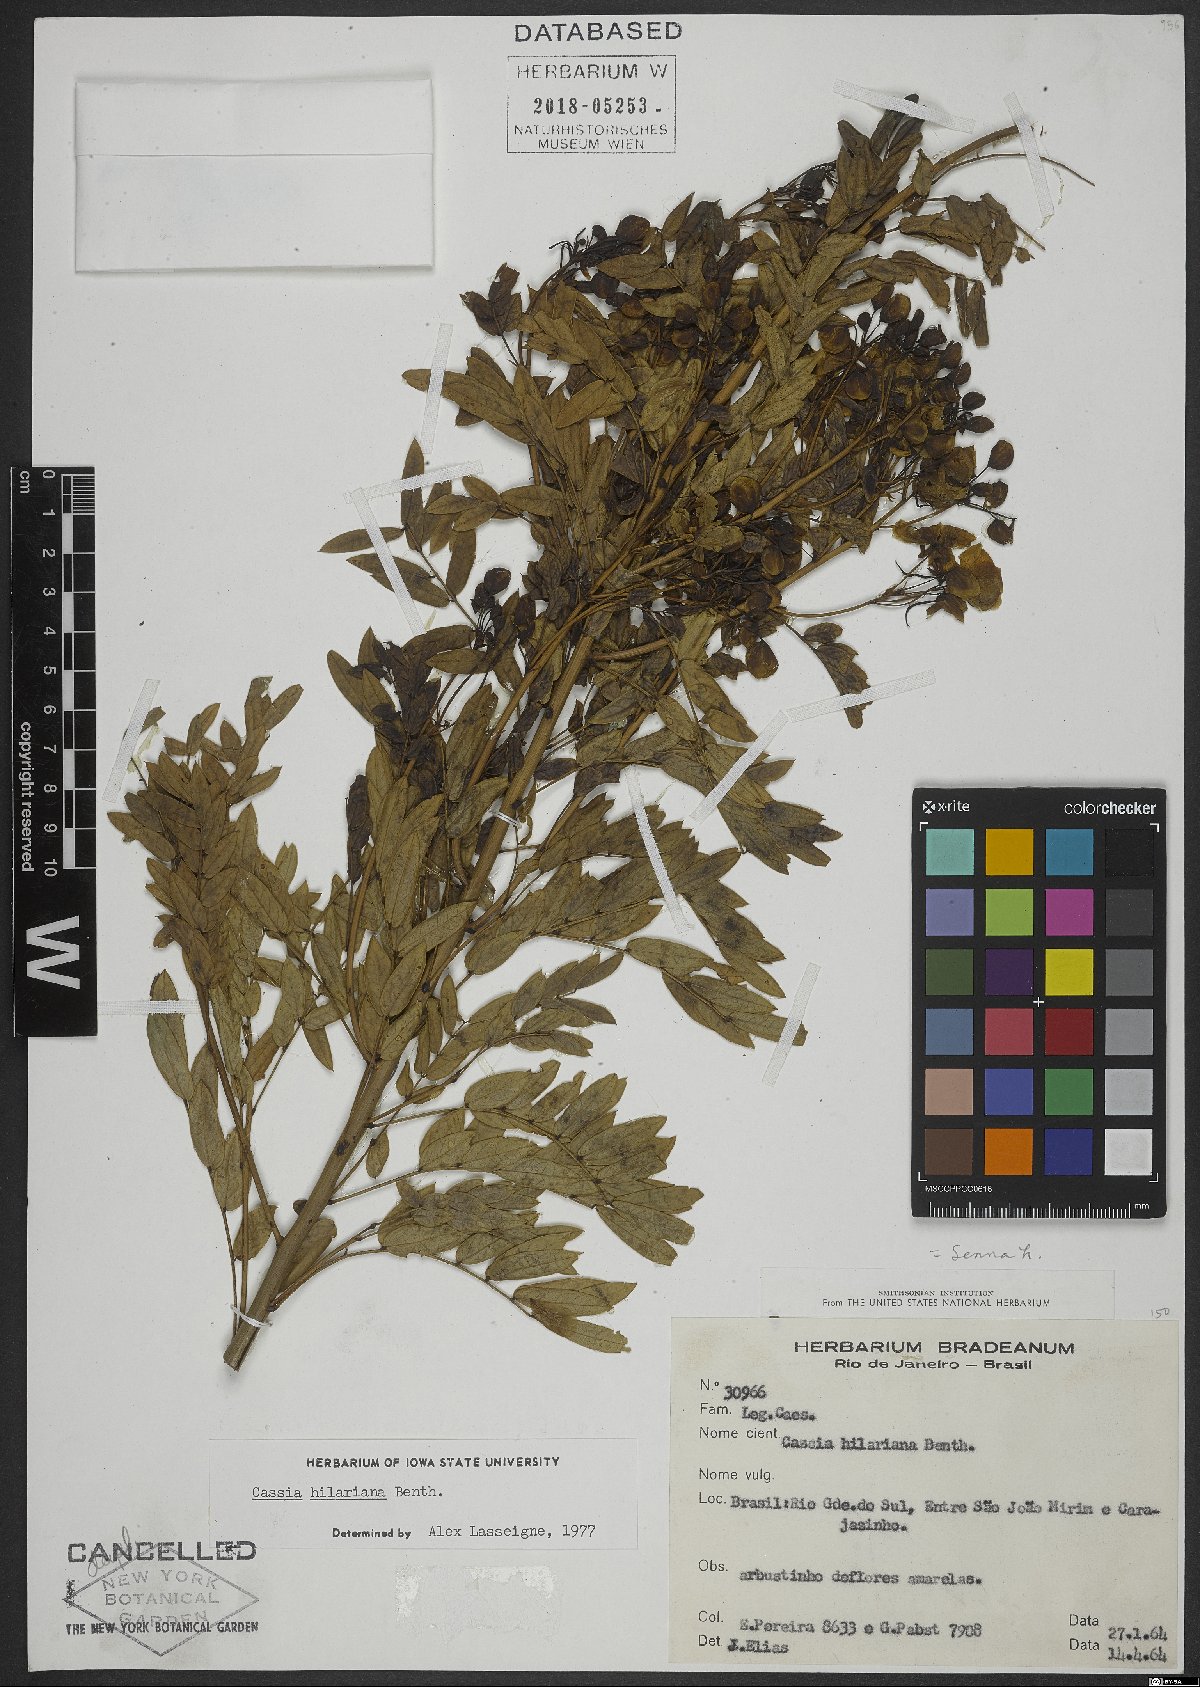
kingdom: Plantae
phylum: Tracheophyta
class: Magnoliopsida
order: Fabales
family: Fabaceae
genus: Senna
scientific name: Senna hilariana
